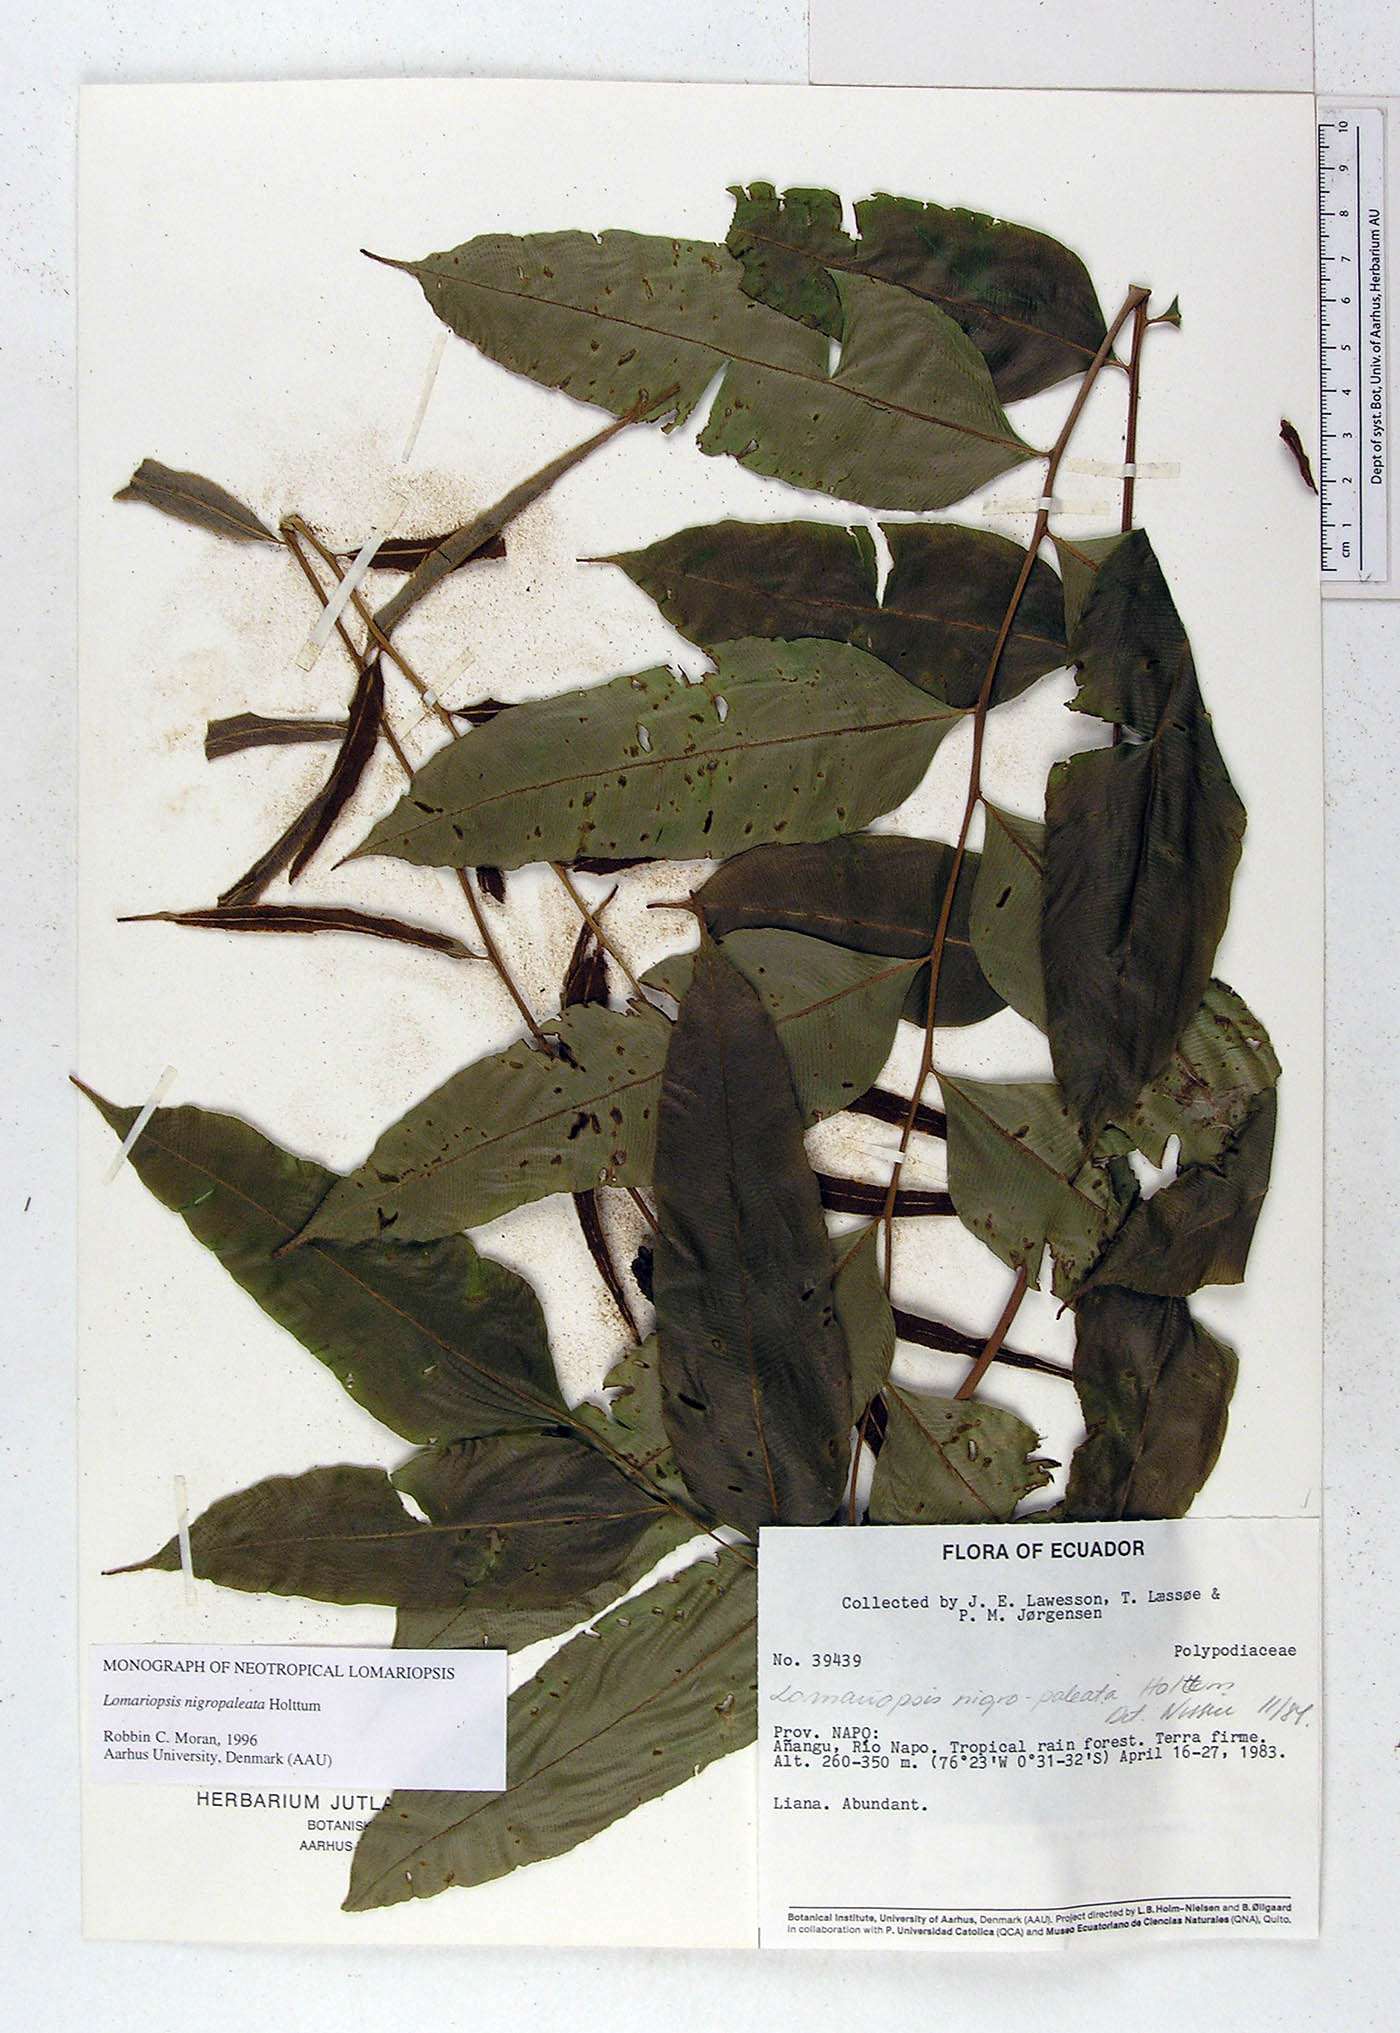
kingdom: Plantae
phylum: Tracheophyta
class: Polypodiopsida
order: Polypodiales
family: Lomariopsidaceae
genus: Lomariopsis
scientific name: Lomariopsis nigropaleata
